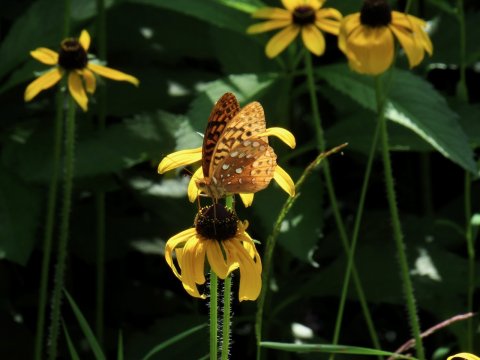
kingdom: Animalia
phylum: Arthropoda
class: Insecta
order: Lepidoptera
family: Nymphalidae
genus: Speyeria
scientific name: Speyeria cybele
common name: Great Spangled Fritillary
